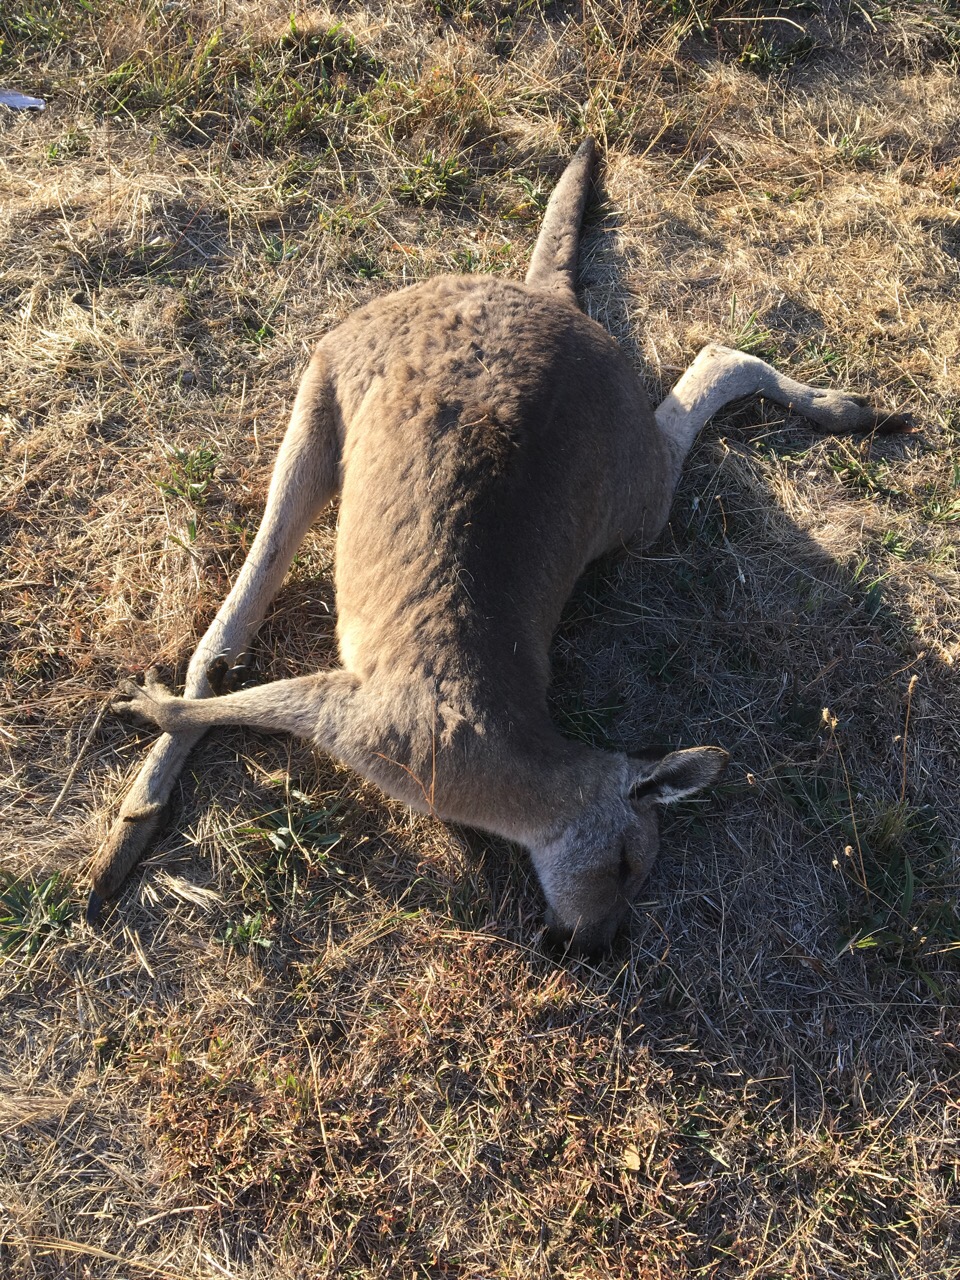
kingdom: Animalia
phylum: Chordata
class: Mammalia
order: Diprotodontia
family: Macropodidae
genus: Macropus
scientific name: Macropus giganteus
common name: Eastern grey kangaroo
